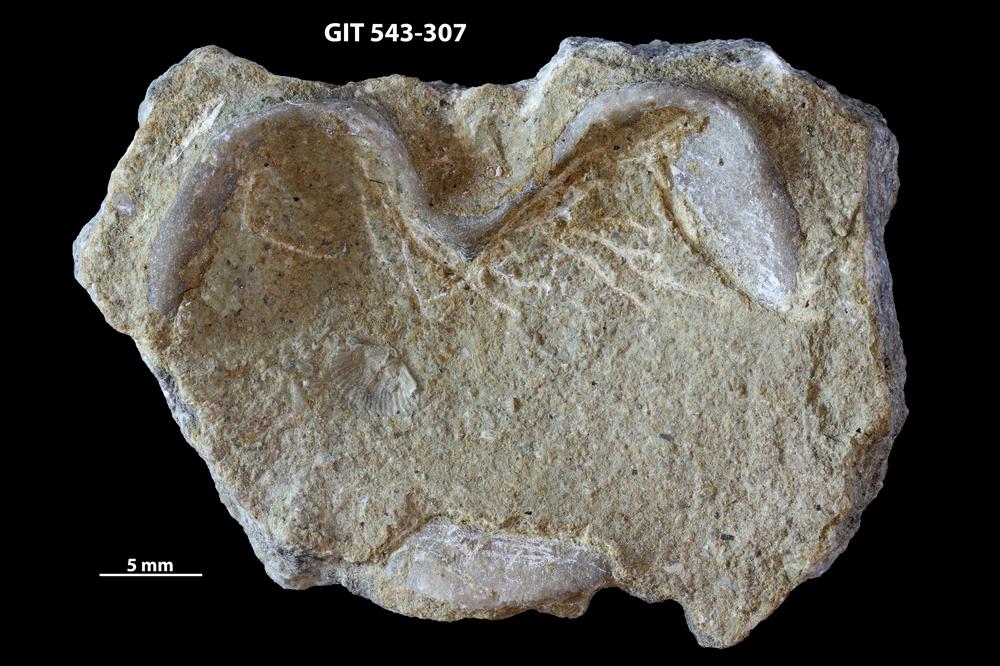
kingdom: Animalia
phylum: Brachiopoda
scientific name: Brachiopoda
